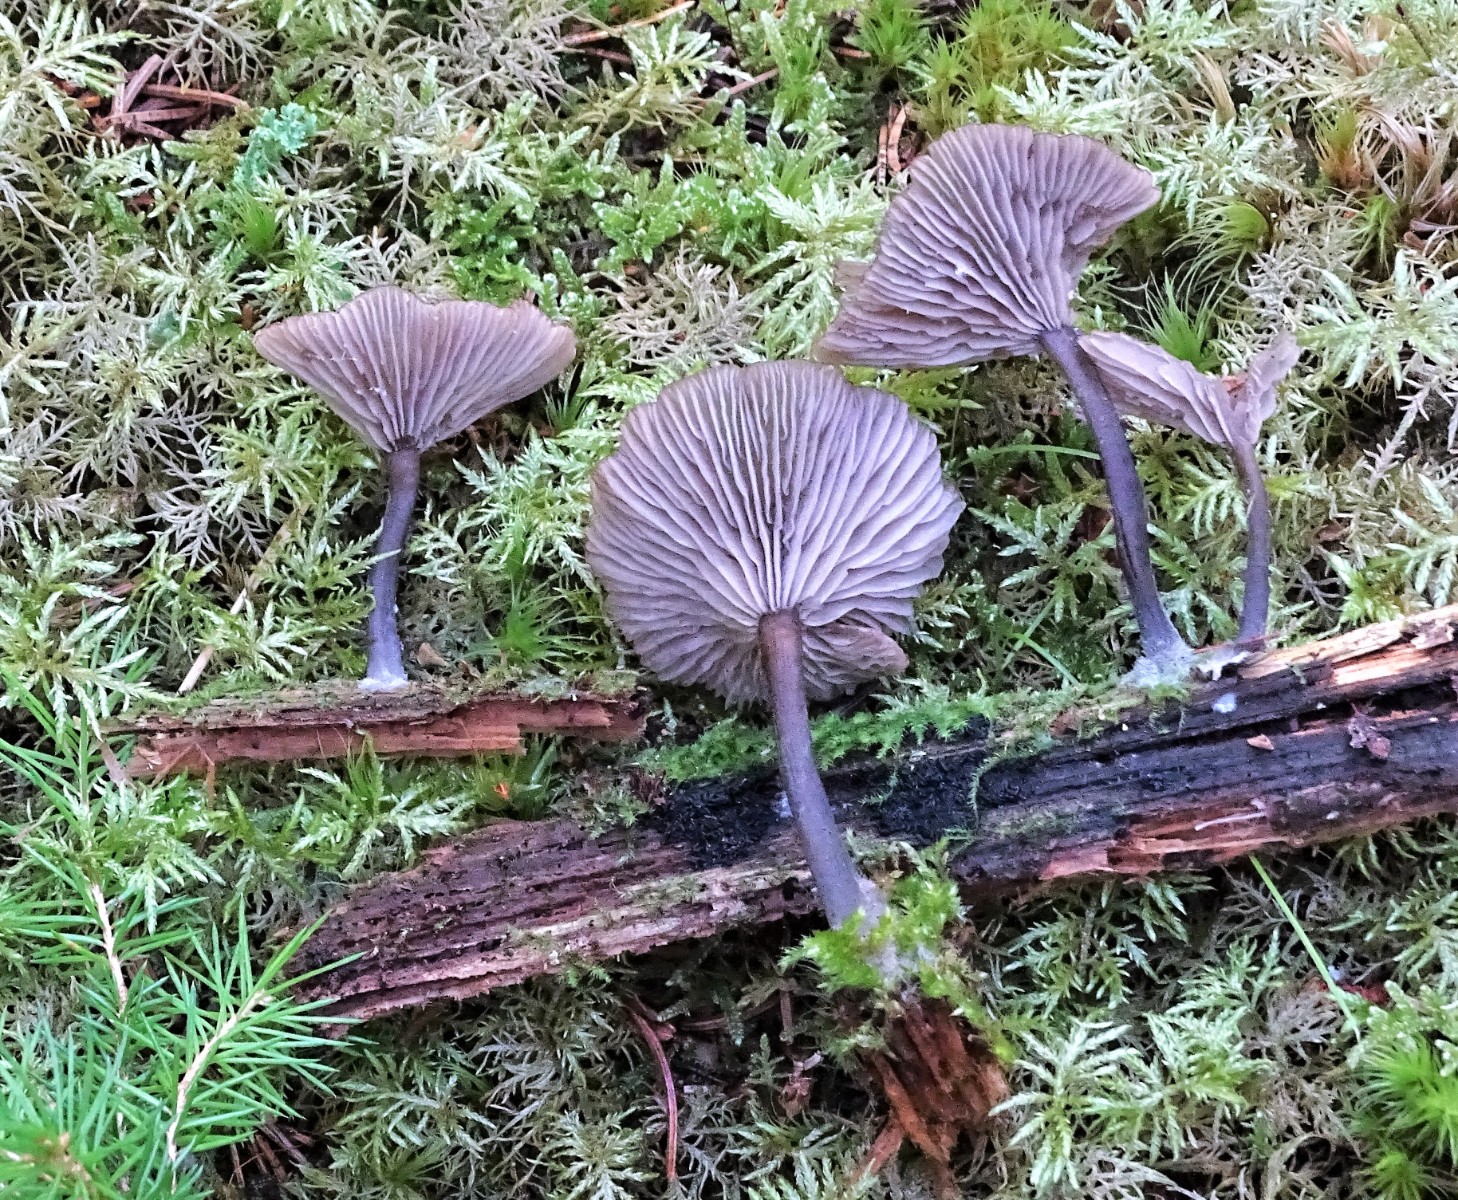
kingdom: Fungi
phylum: Basidiomycota
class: Agaricomycetes
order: Agaricales
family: Hygrophoraceae
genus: Arrhenia
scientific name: Arrhenia epichysium
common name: ved-fontænehat
